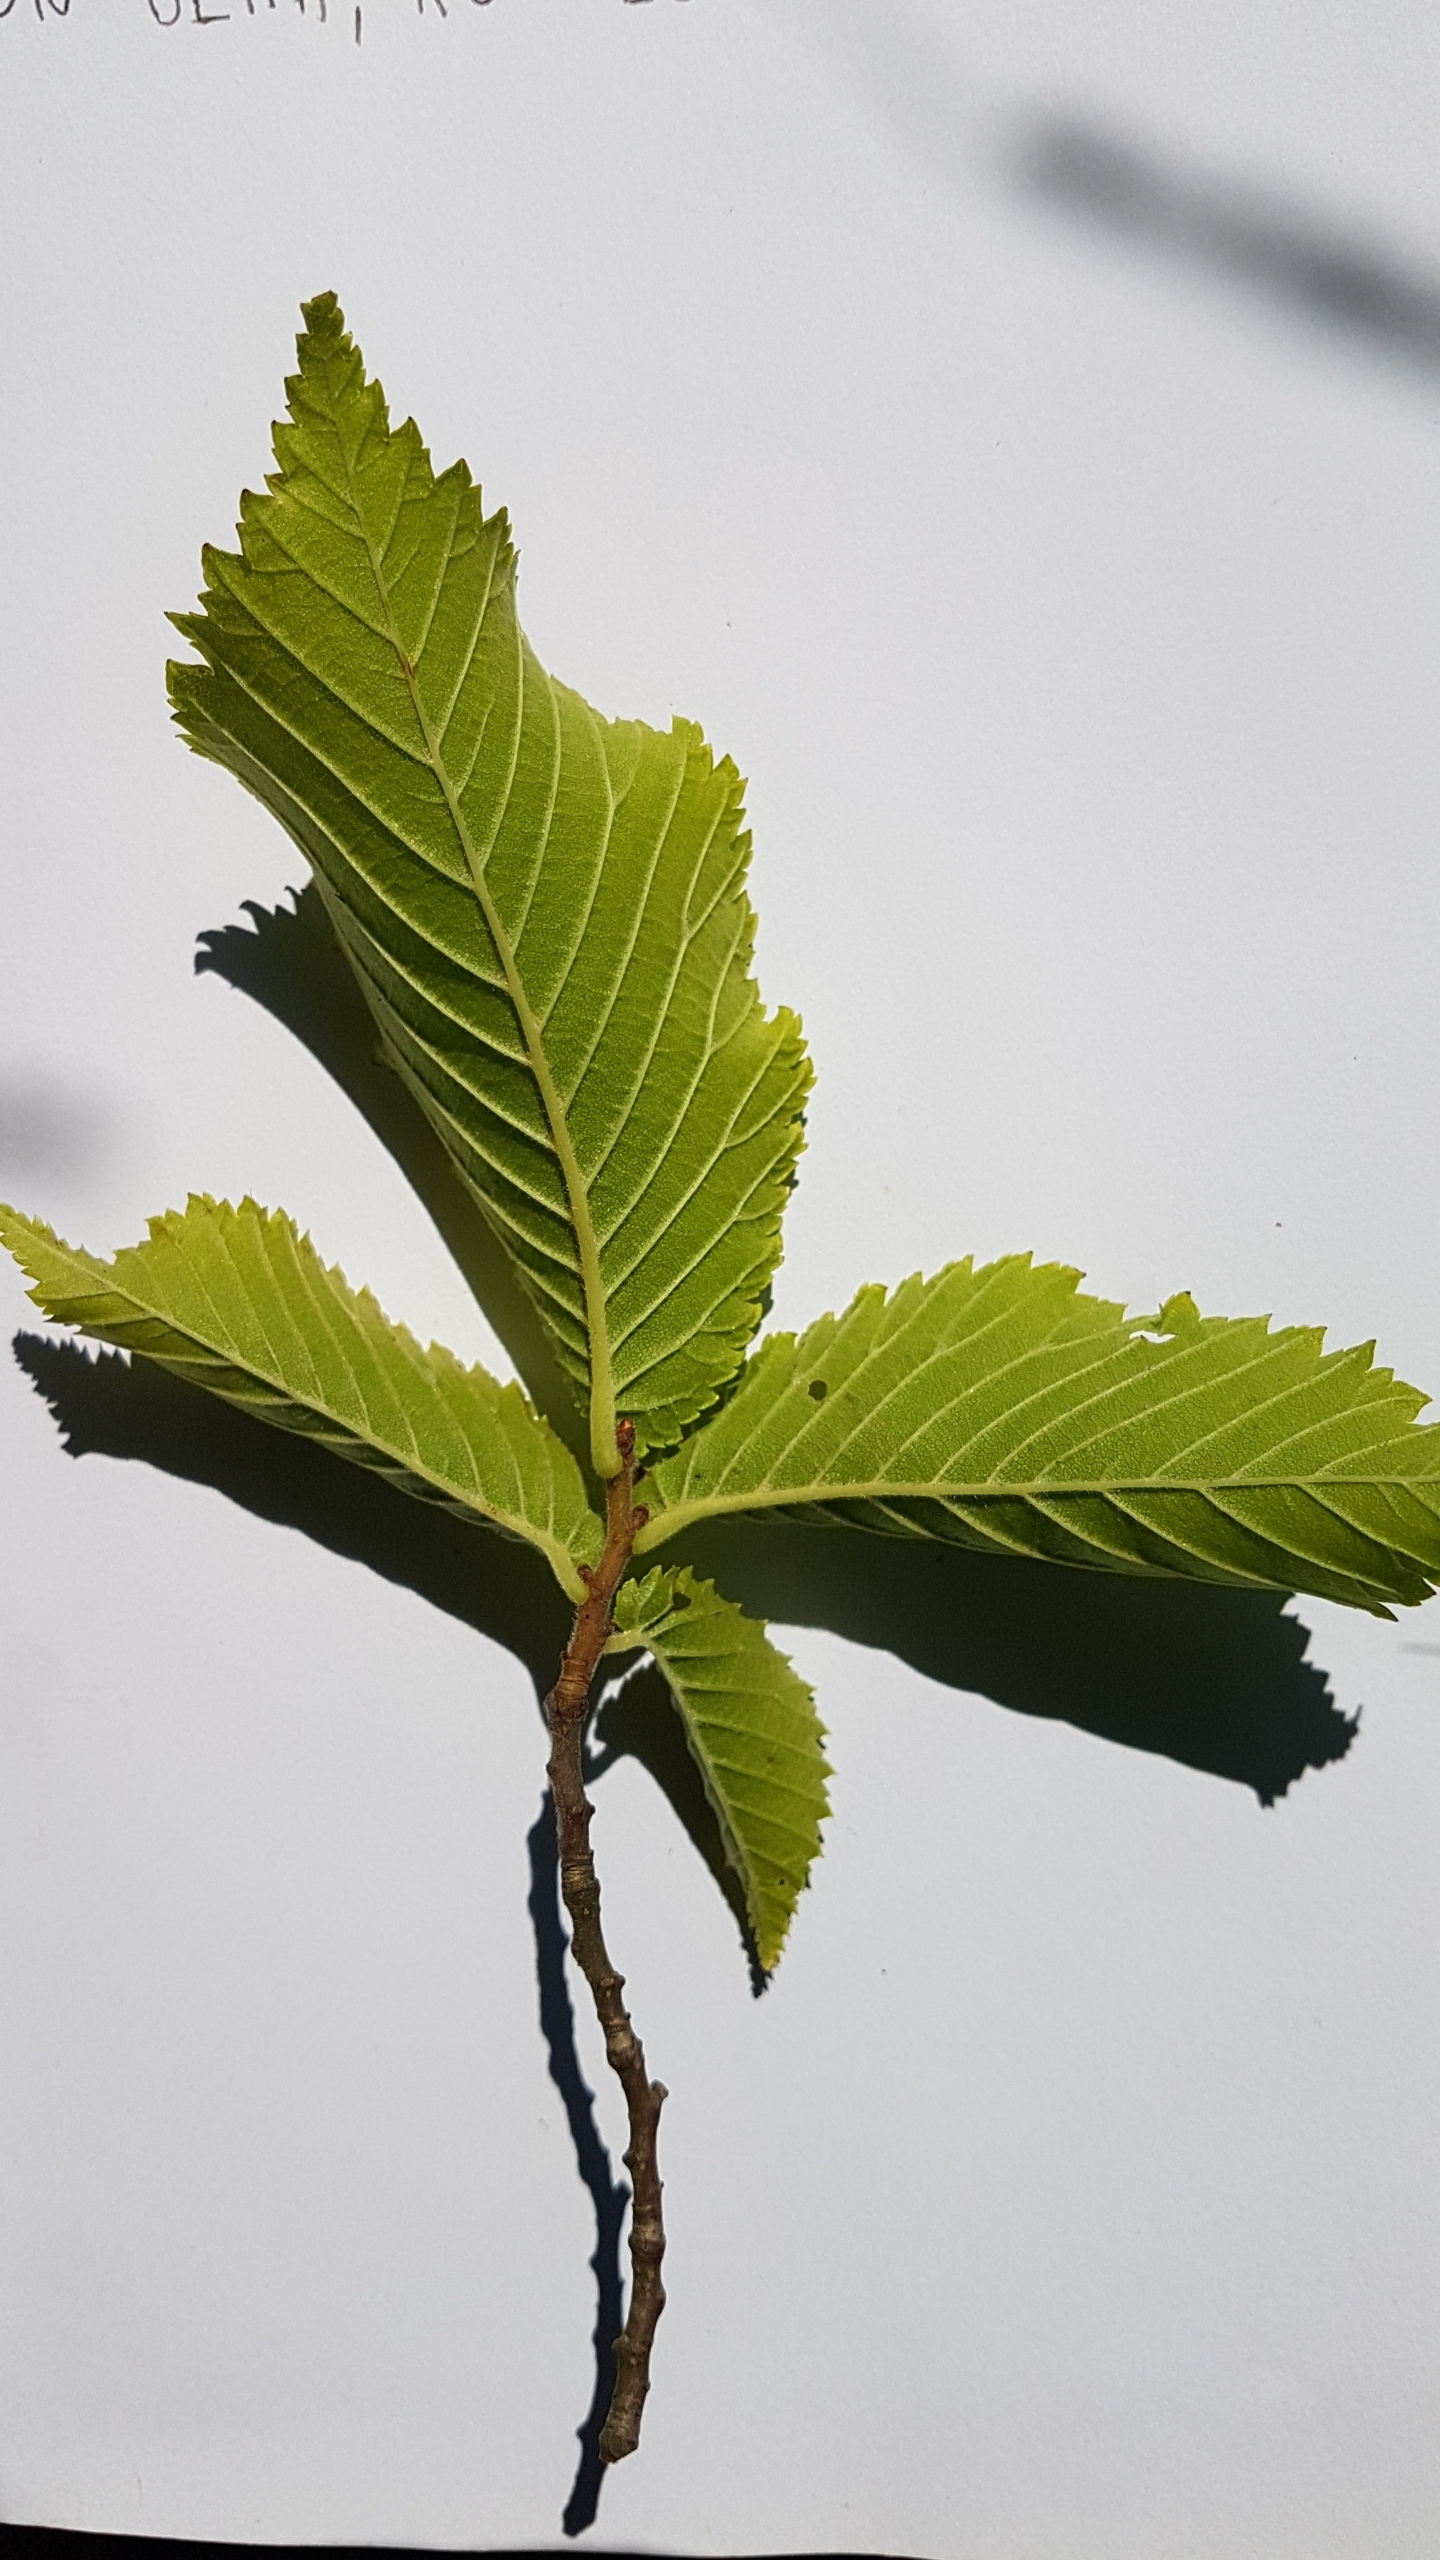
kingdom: Plantae
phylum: Tracheophyta
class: Magnoliopsida
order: Rosales
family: Ulmaceae
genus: Ulmus
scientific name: Ulmus glabra
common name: Skov-elm/storbladet elm
